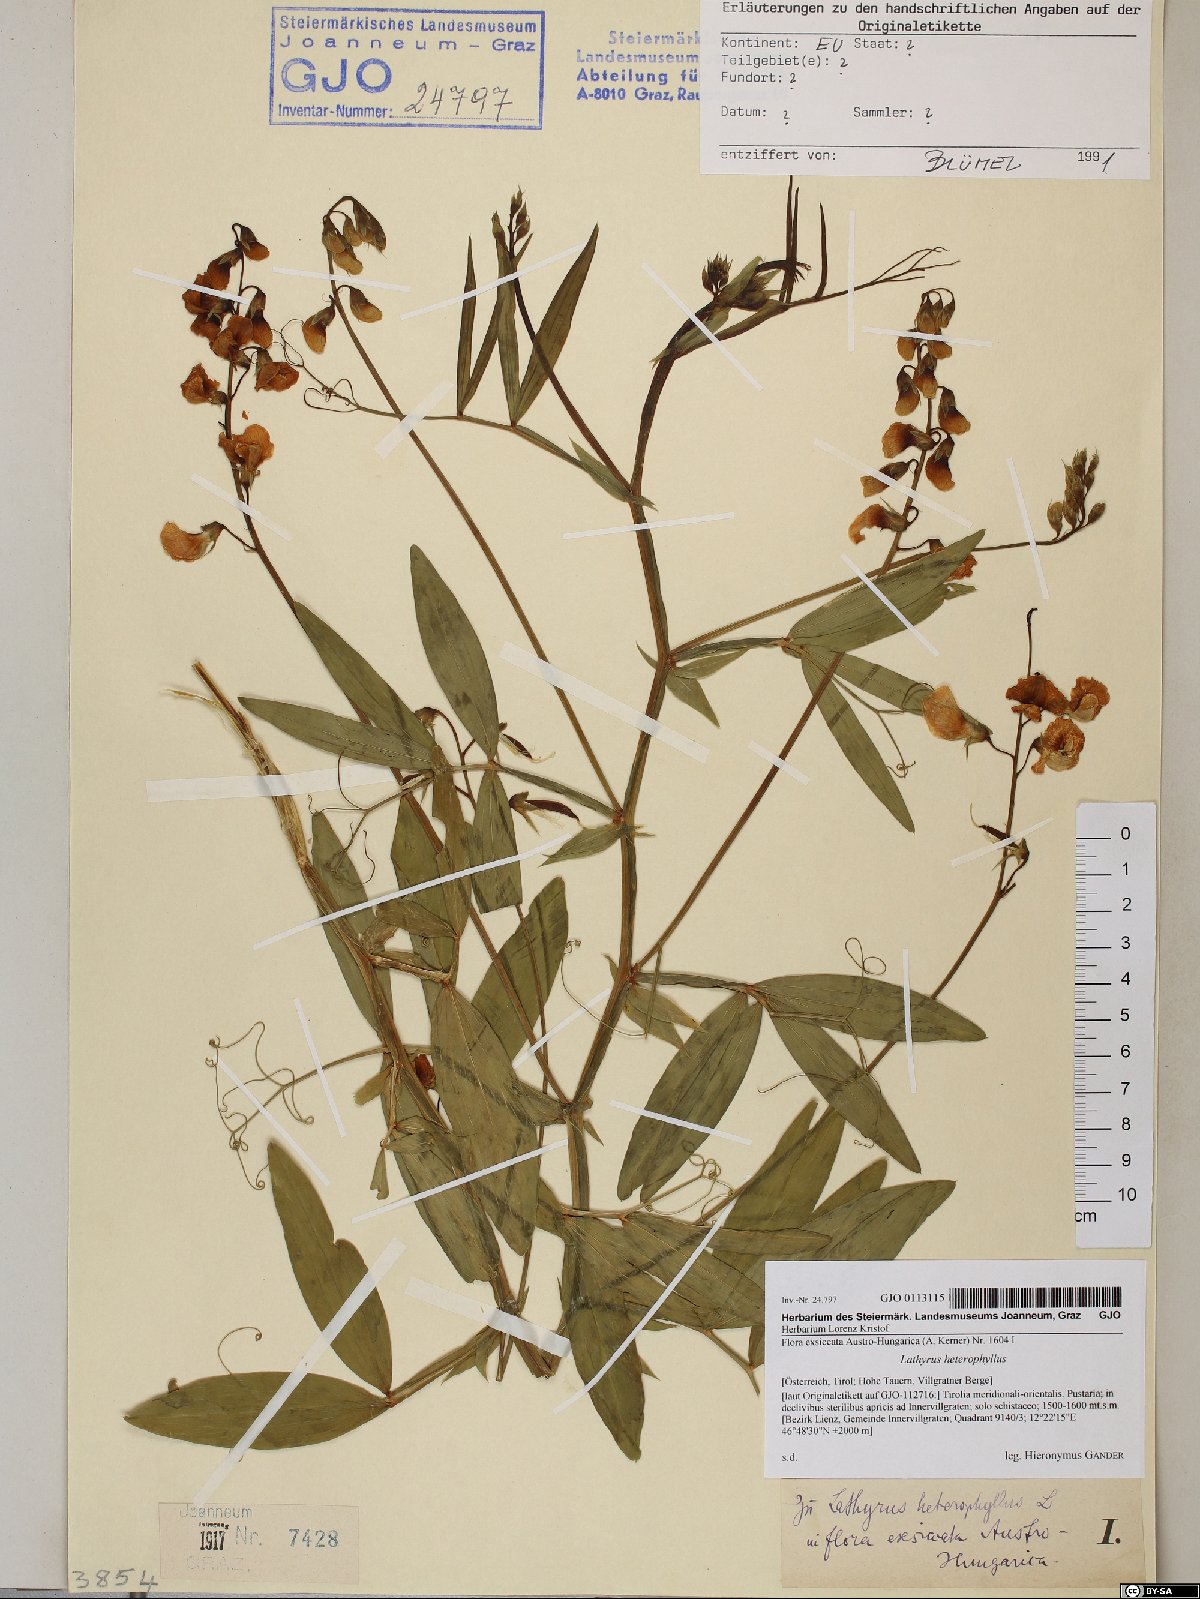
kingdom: Plantae
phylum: Tracheophyta
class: Magnoliopsida
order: Fabales
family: Fabaceae
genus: Lathyrus
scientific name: Lathyrus heterophyllus
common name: Norfolk everlasting-pea
